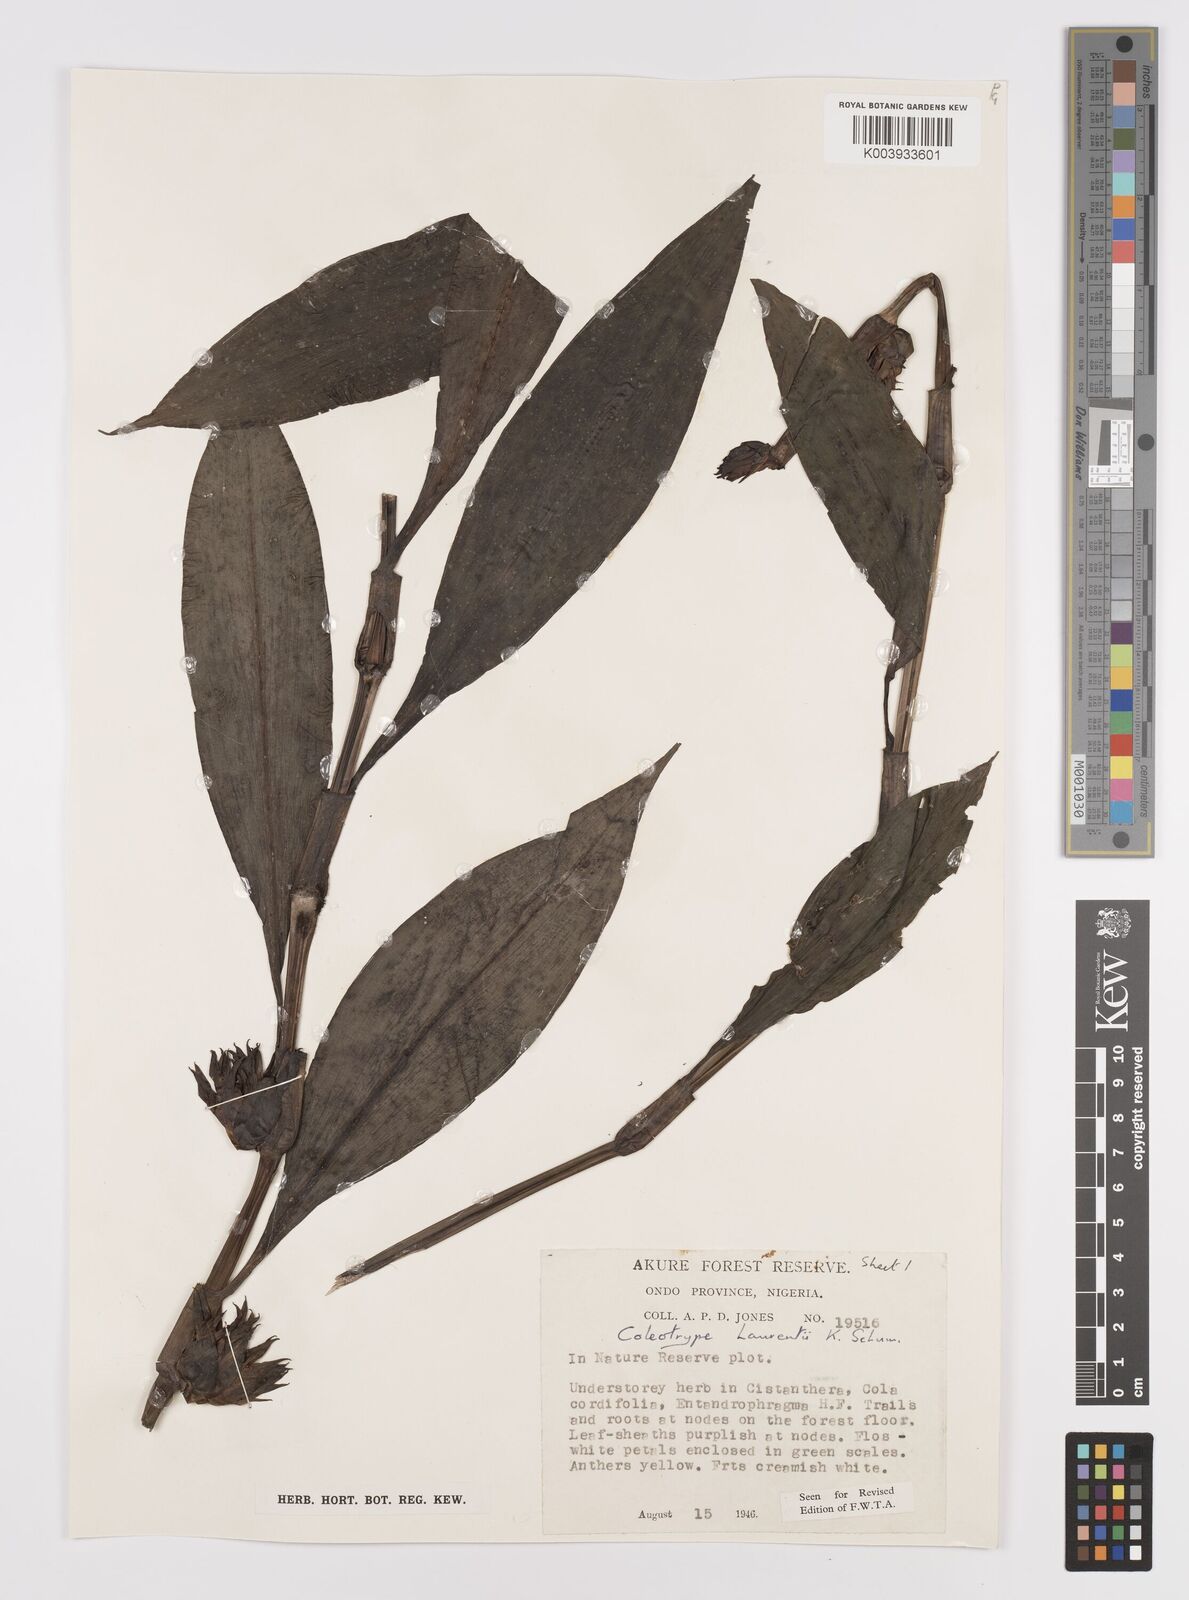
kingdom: Plantae
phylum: Tracheophyta
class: Liliopsida
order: Commelinales
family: Commelinaceae
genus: Coleotrype
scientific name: Coleotrype laurentii
